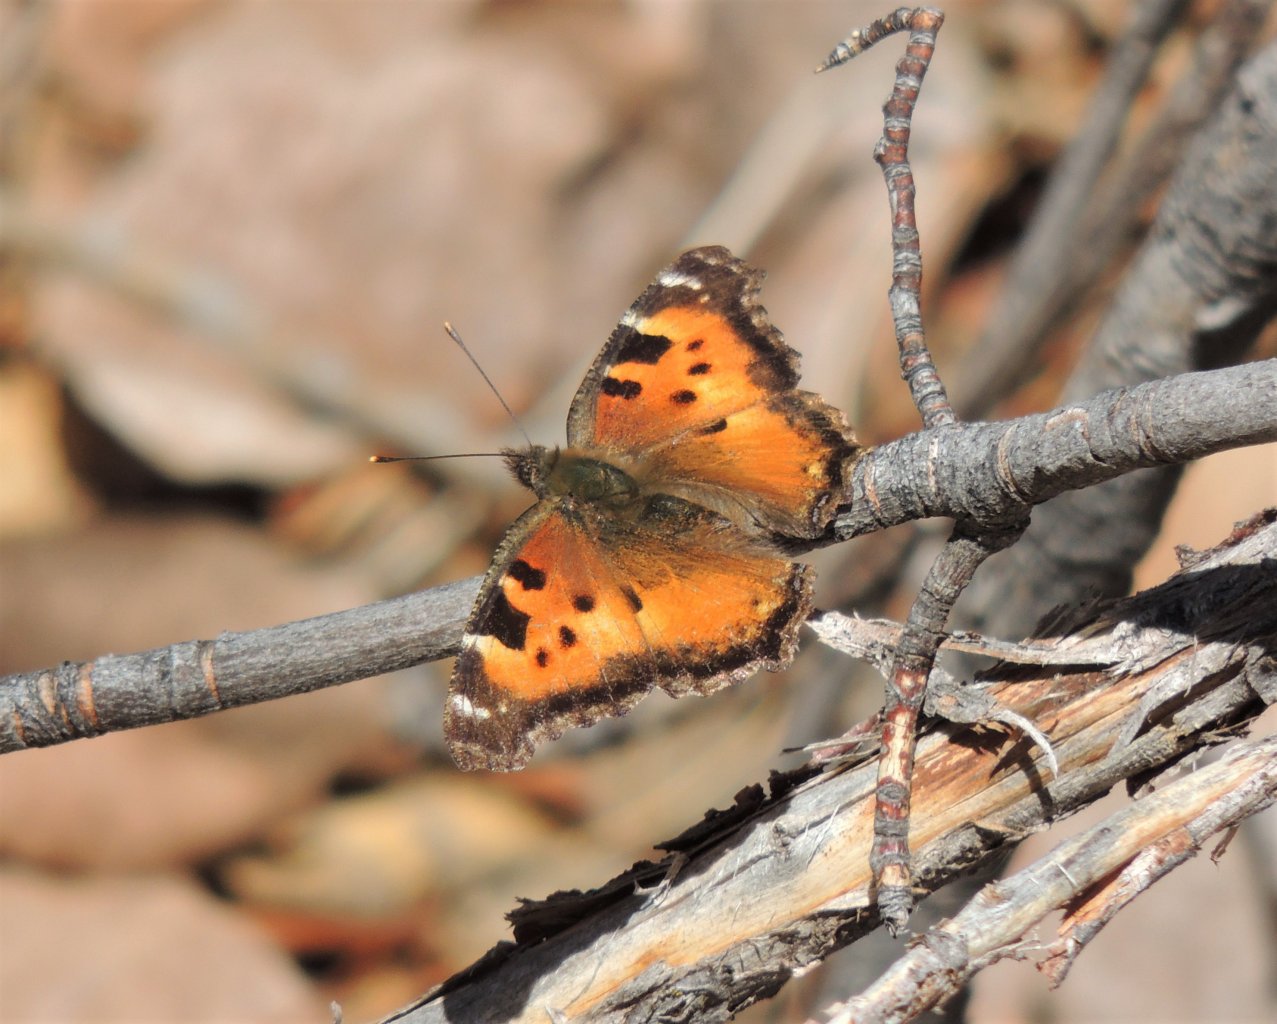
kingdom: Animalia
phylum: Arthropoda
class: Insecta
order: Lepidoptera
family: Nymphalidae
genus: Nymphalis
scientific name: Nymphalis californica
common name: California Tortoiseshell
